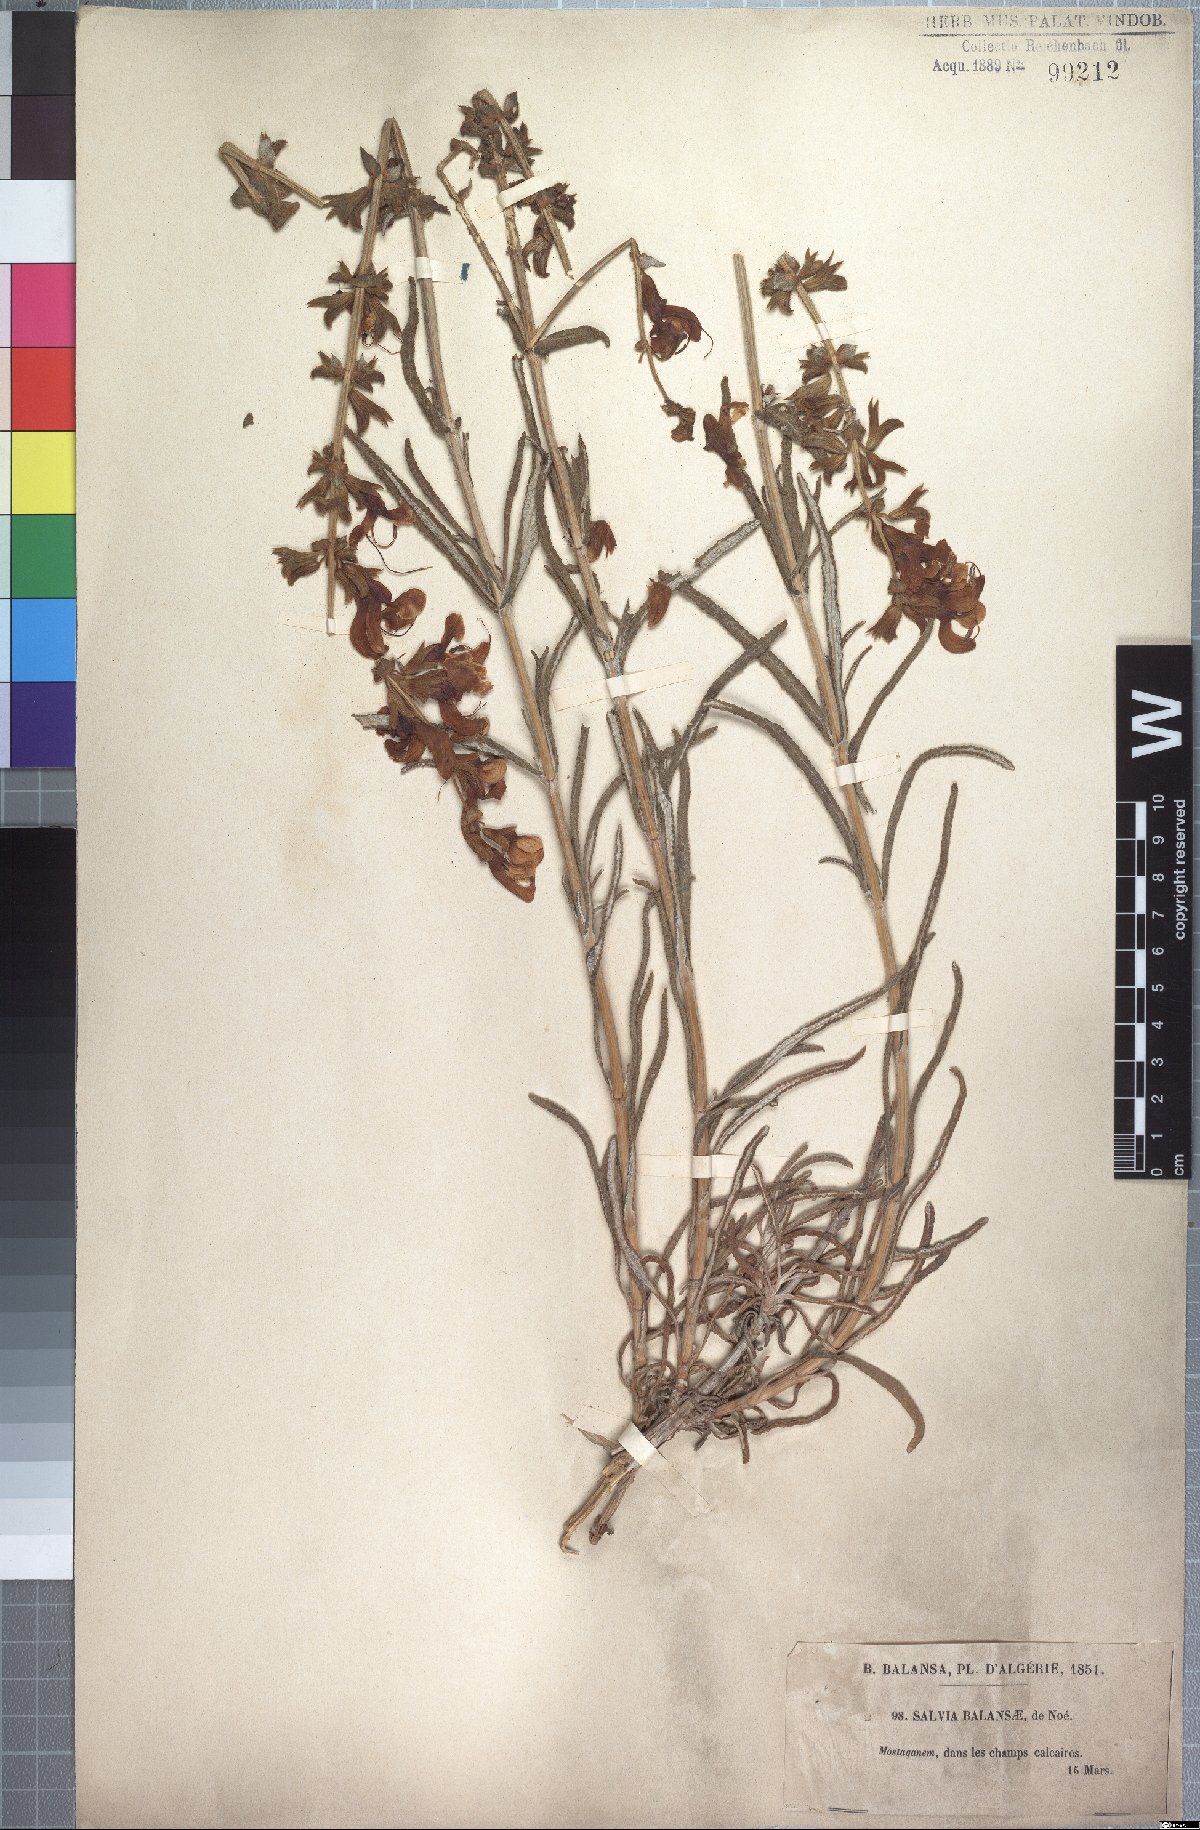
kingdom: Plantae
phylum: Tracheophyta
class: Magnoliopsida
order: Lamiales
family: Lamiaceae
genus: Salvia
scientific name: Salvia balansae
